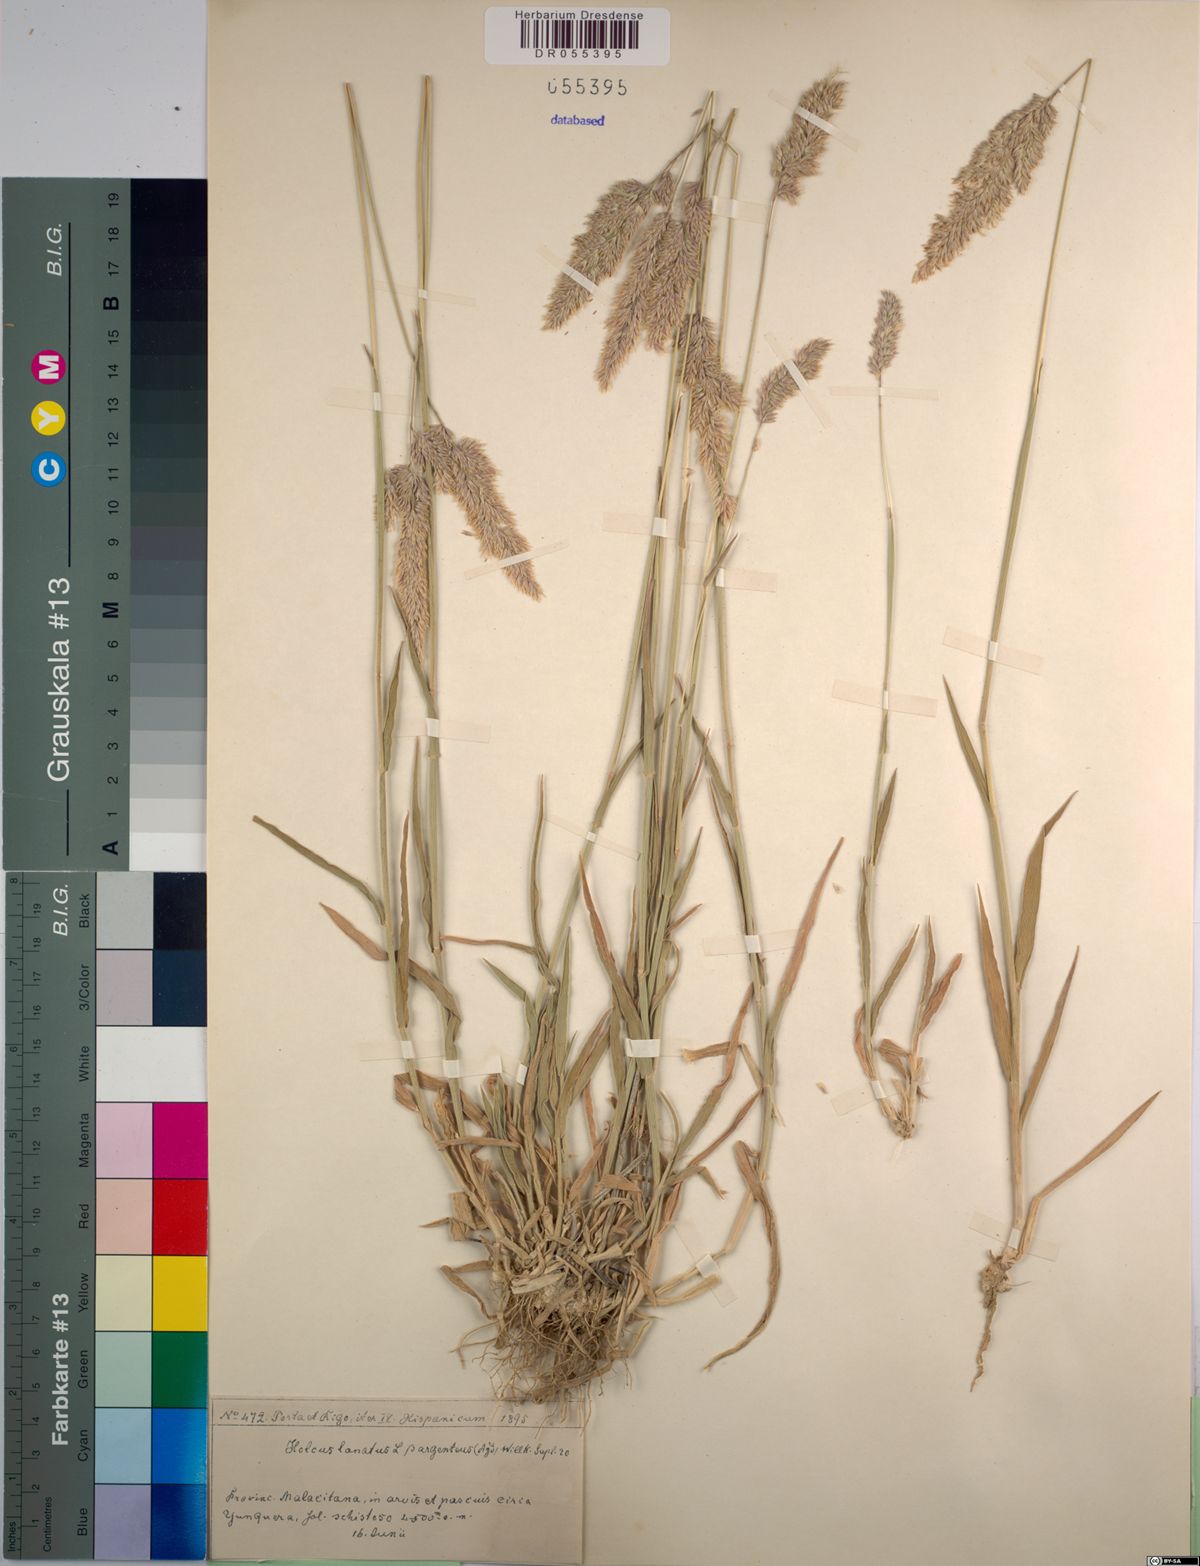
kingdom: Plantae
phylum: Tracheophyta
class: Liliopsida
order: Poales
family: Poaceae
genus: Holcus
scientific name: Holcus lanatus
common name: Yorkshire-fog
